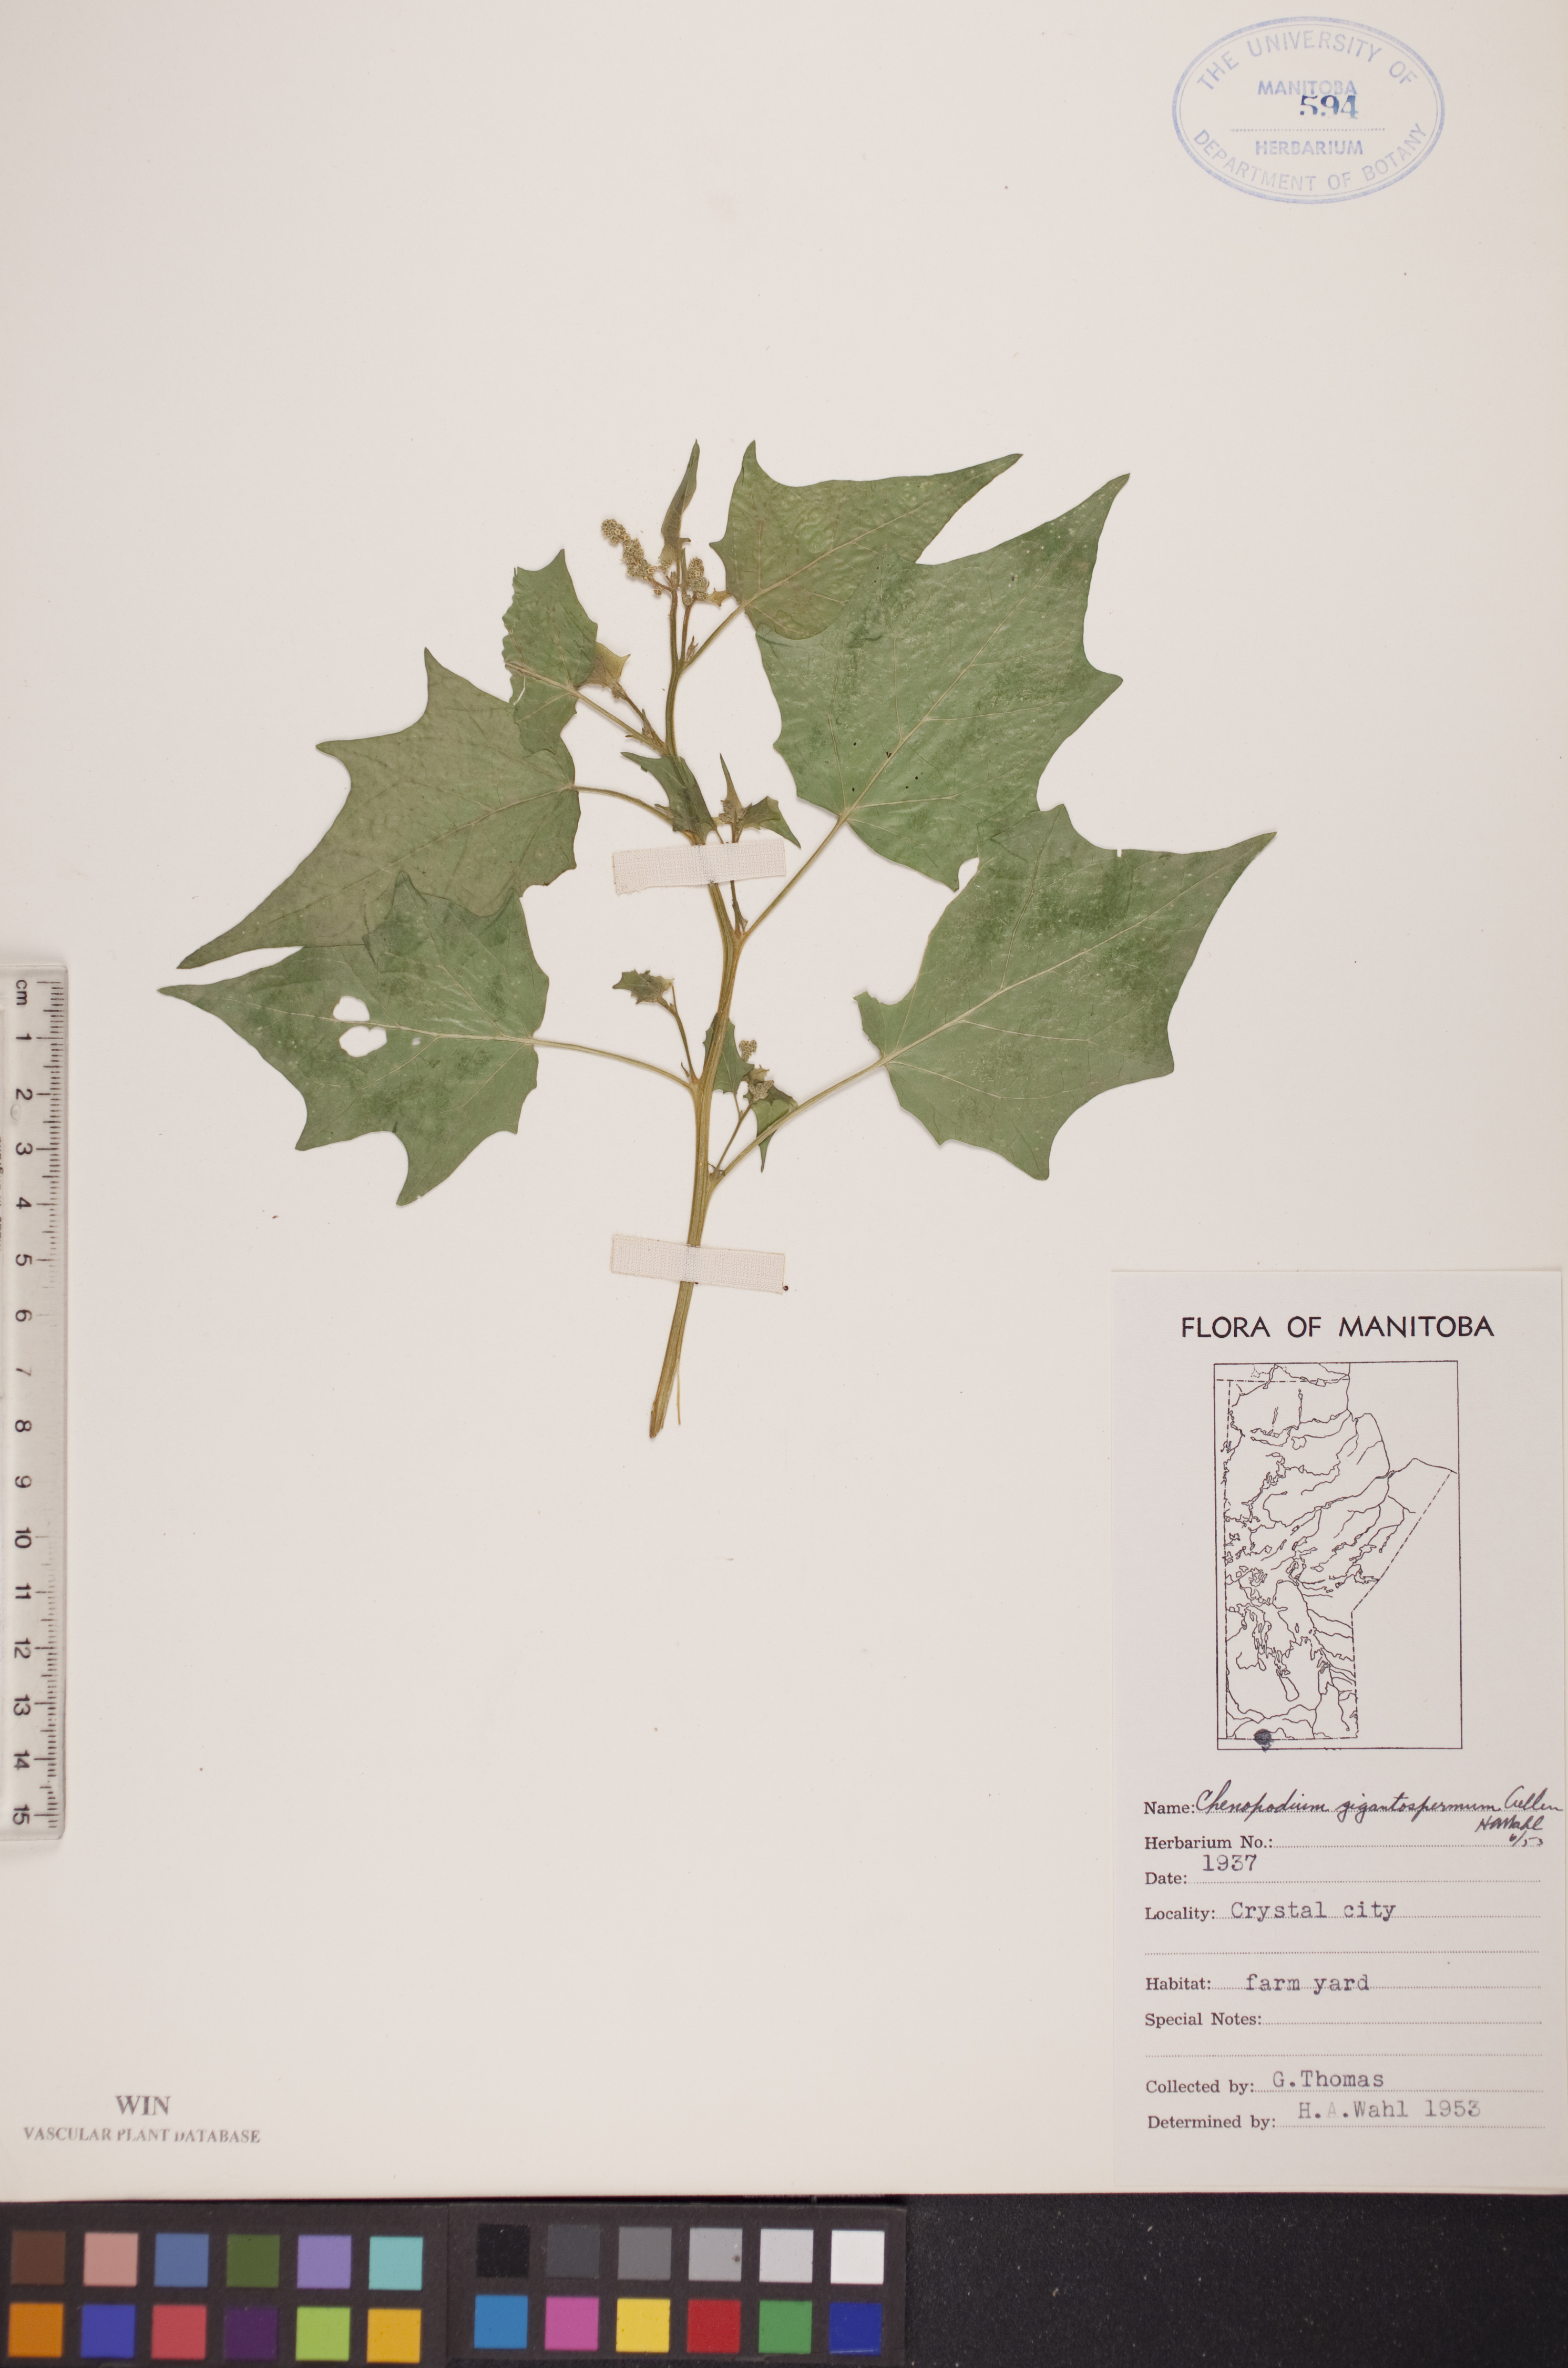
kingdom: Plantae
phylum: Tracheophyta
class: Magnoliopsida
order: Caryophyllales
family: Amaranthaceae
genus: Chenopodiastrum
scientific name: Chenopodiastrum simplex
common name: Large-seed goosefoot
